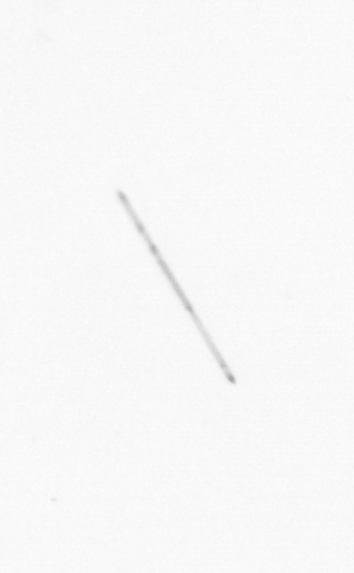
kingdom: Chromista
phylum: Ochrophyta
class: Bacillariophyceae
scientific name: Bacillariophyceae
